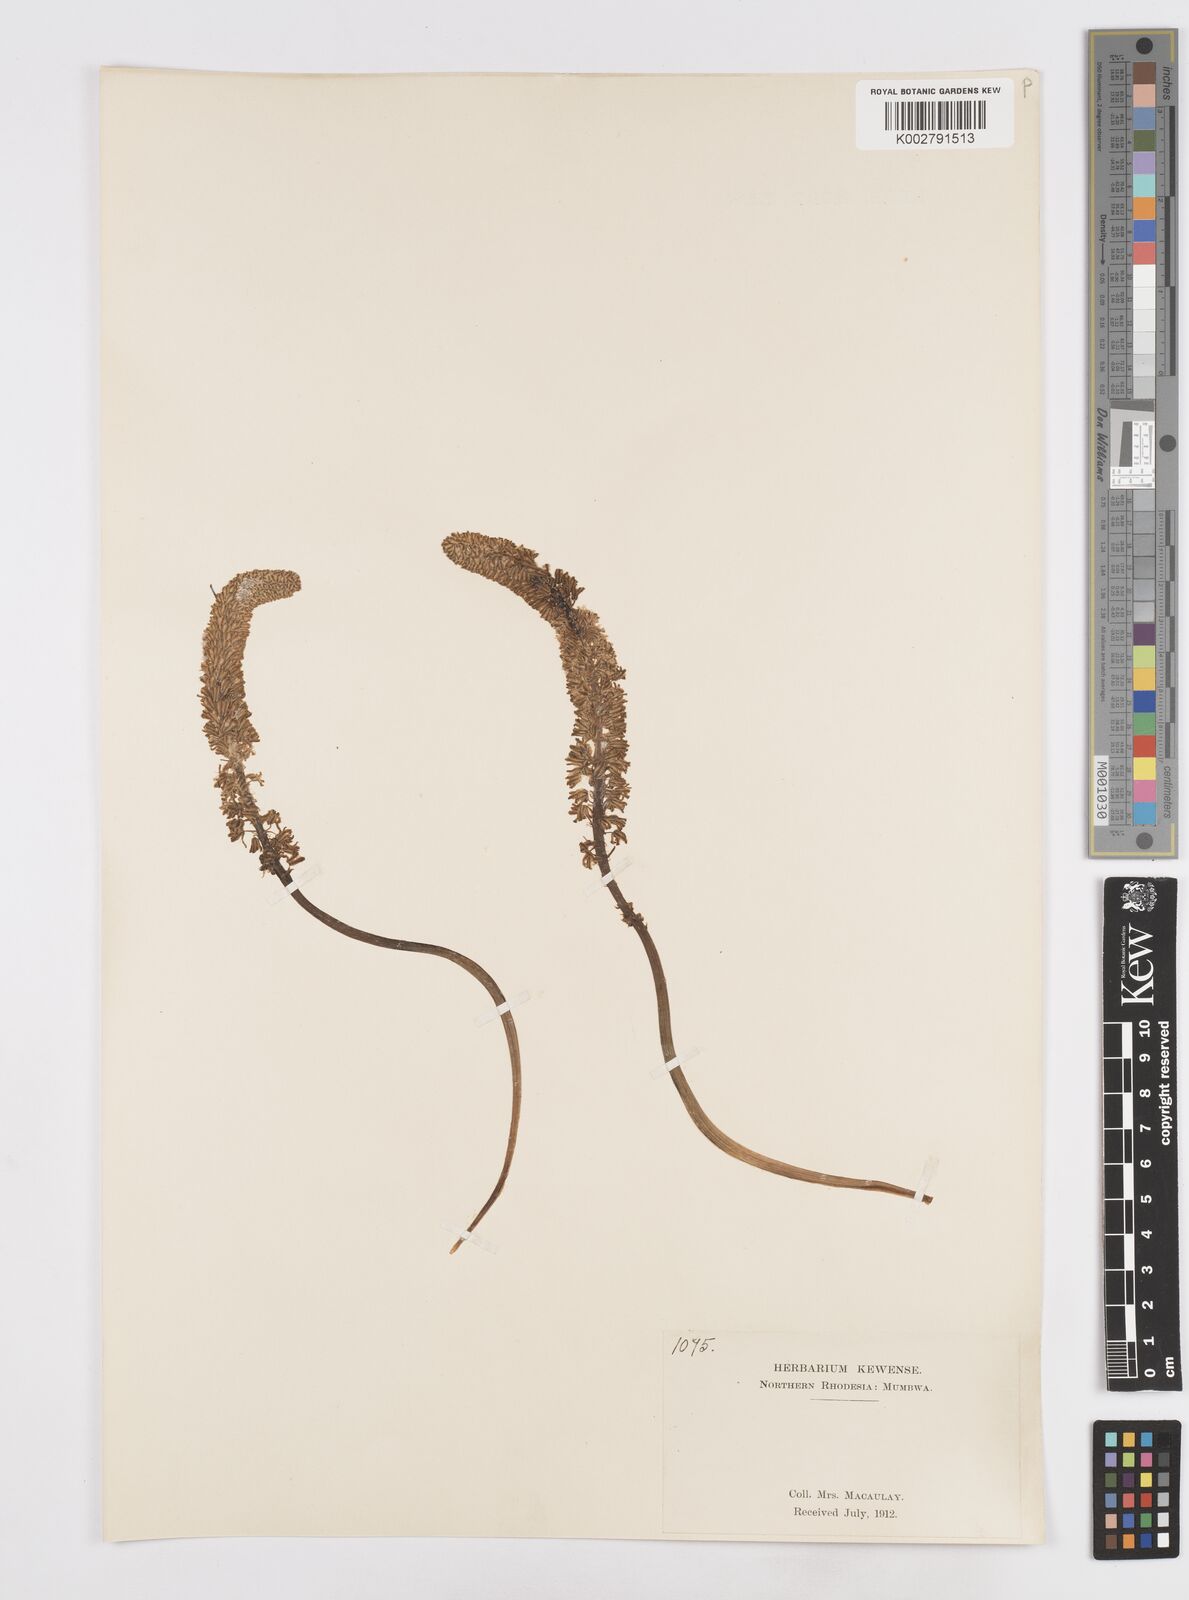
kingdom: Plantae
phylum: Tracheophyta
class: Liliopsida
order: Asparagales
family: Asparagaceae
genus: Scilla
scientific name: Scilla
